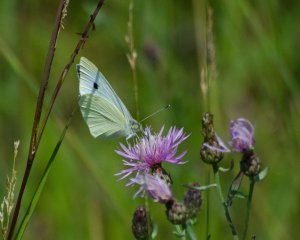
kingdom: Animalia
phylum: Arthropoda
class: Insecta
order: Lepidoptera
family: Pieridae
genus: Pieris
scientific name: Pieris rapae
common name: Cabbage White
